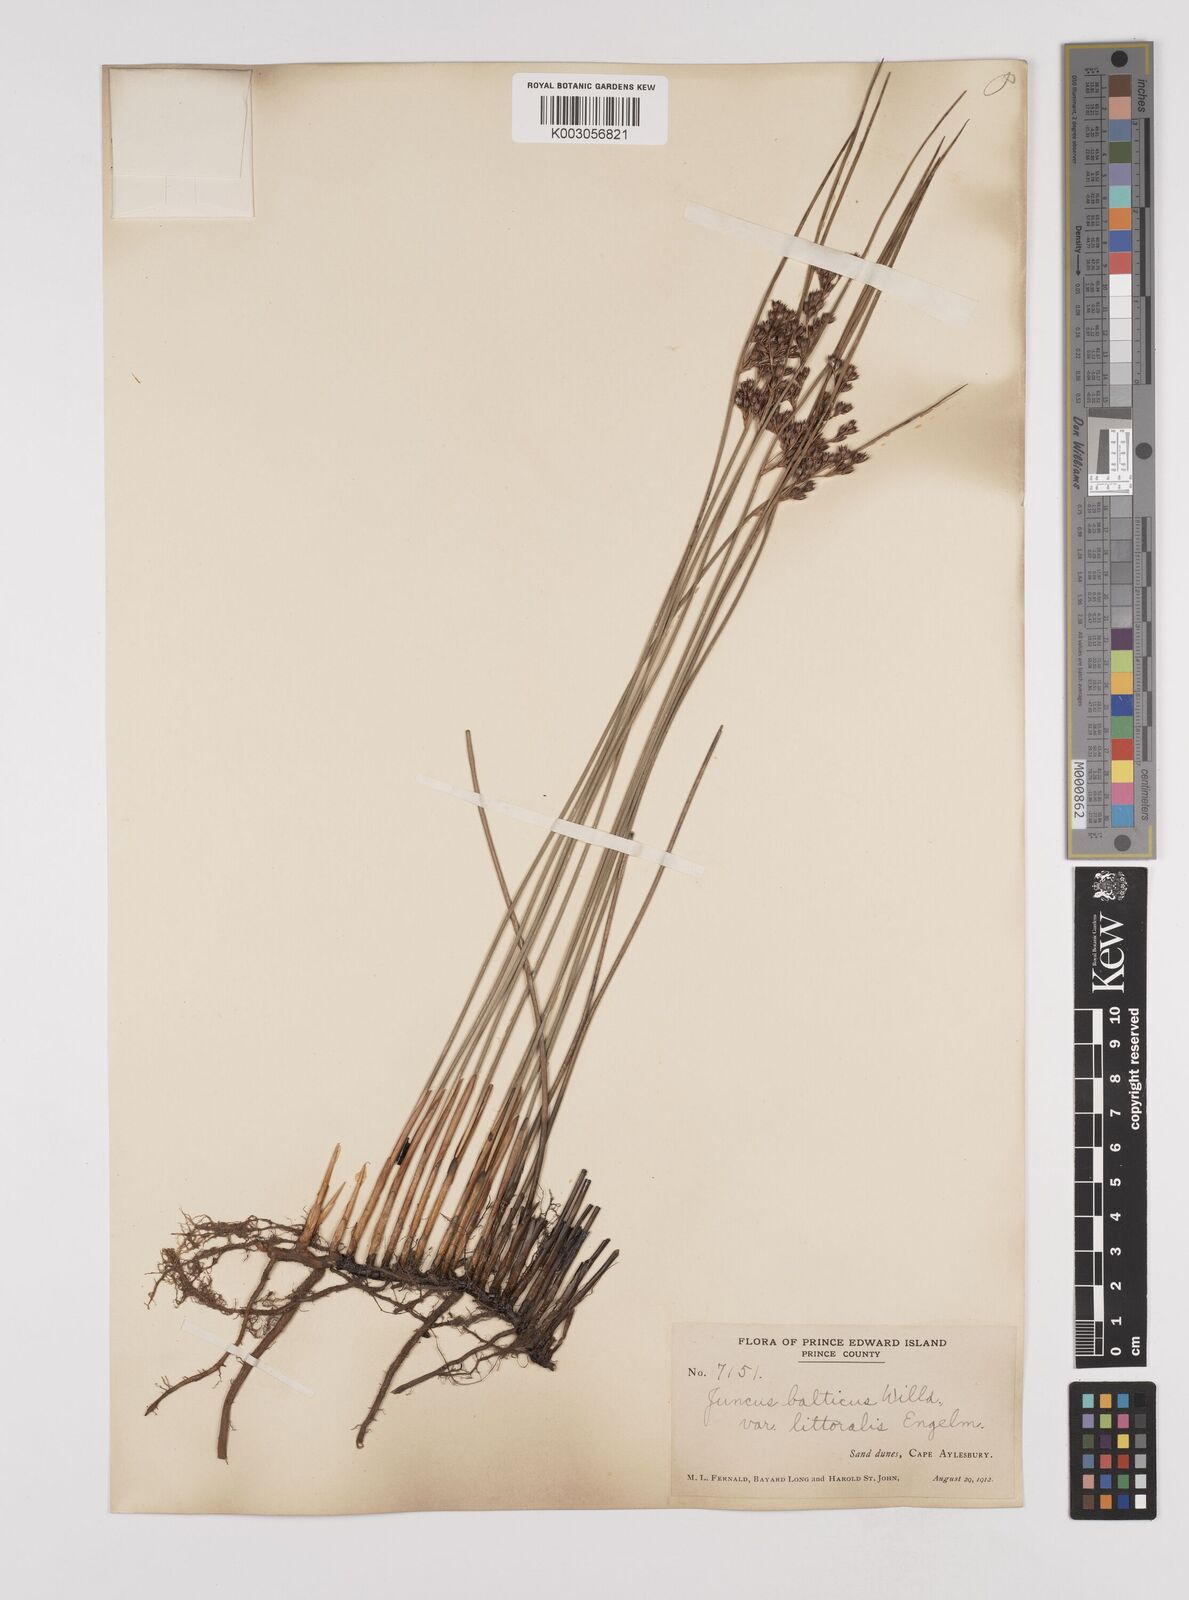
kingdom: Plantae
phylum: Tracheophyta
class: Liliopsida
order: Poales
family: Juncaceae
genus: Juncus
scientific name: Juncus balticus
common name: Baltic rush
